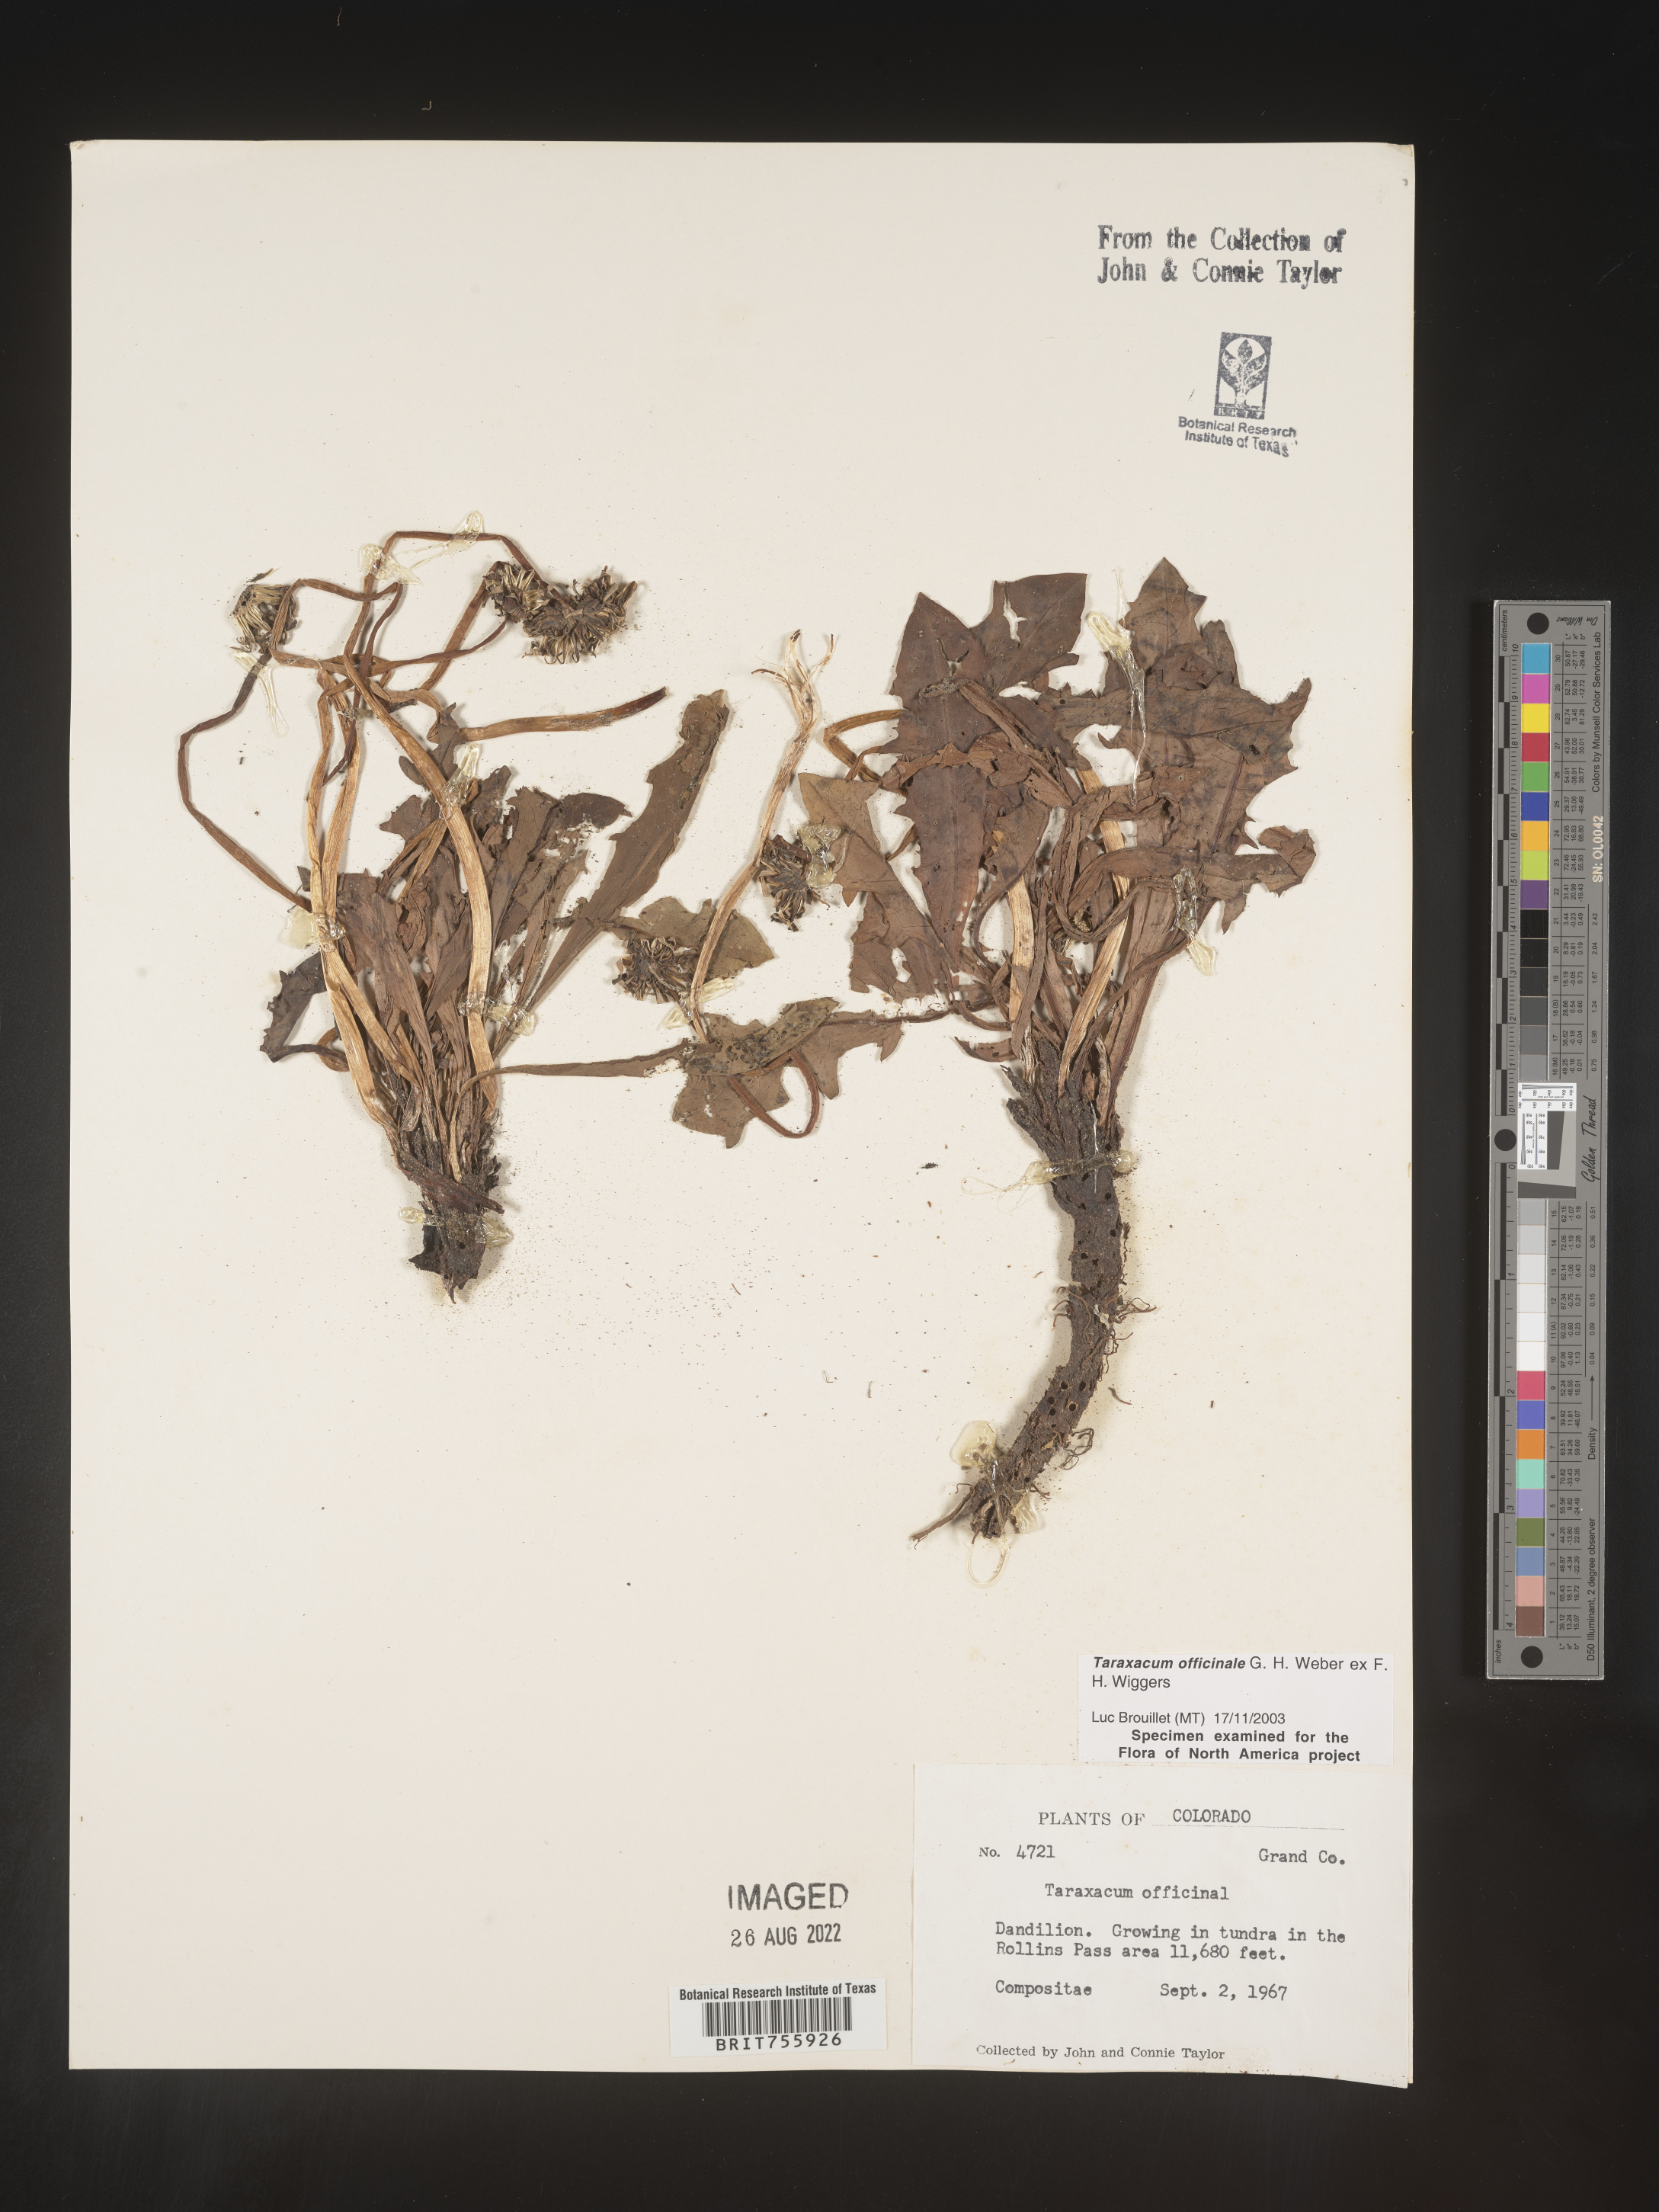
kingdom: Plantae
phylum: Tracheophyta
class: Magnoliopsida
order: Asterales
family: Asteraceae
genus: Taraxacum
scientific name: Taraxacum officinale
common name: Common dandelion
